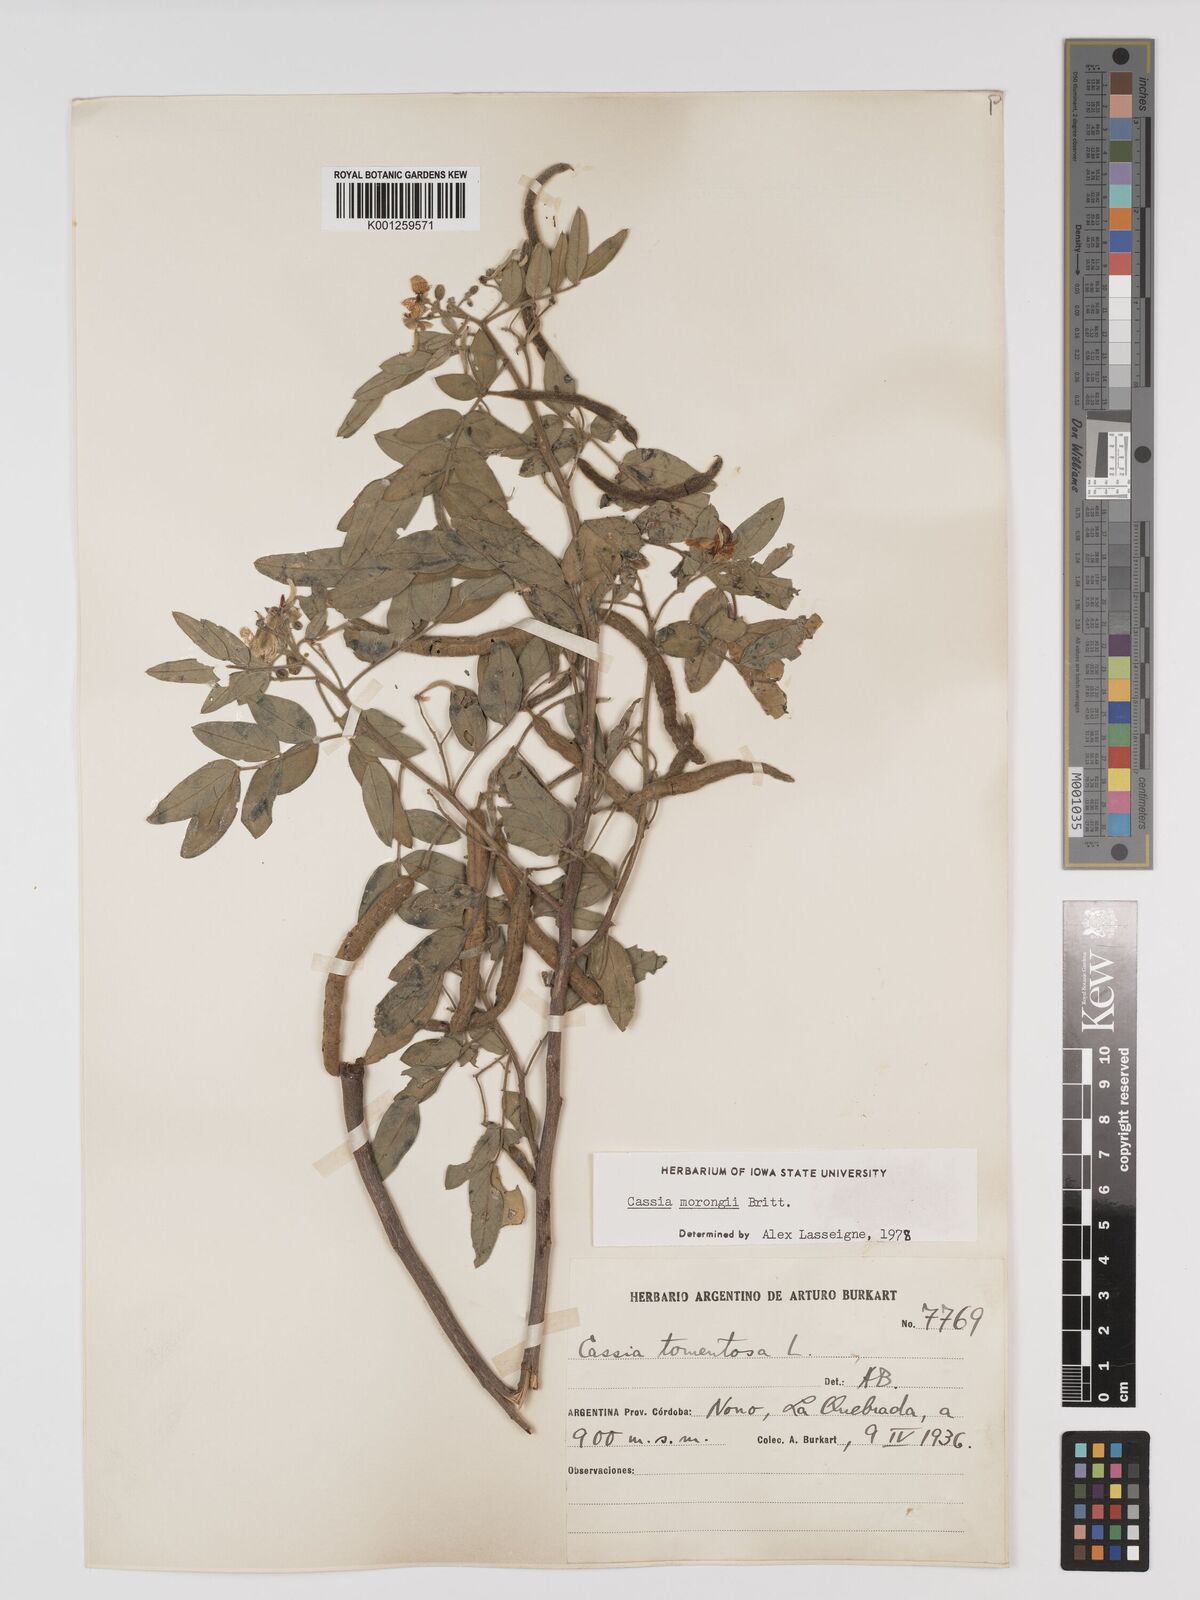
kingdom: Plantae
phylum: Tracheophyta
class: Magnoliopsida
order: Fabales
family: Fabaceae
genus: Senna
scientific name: Senna morongii
